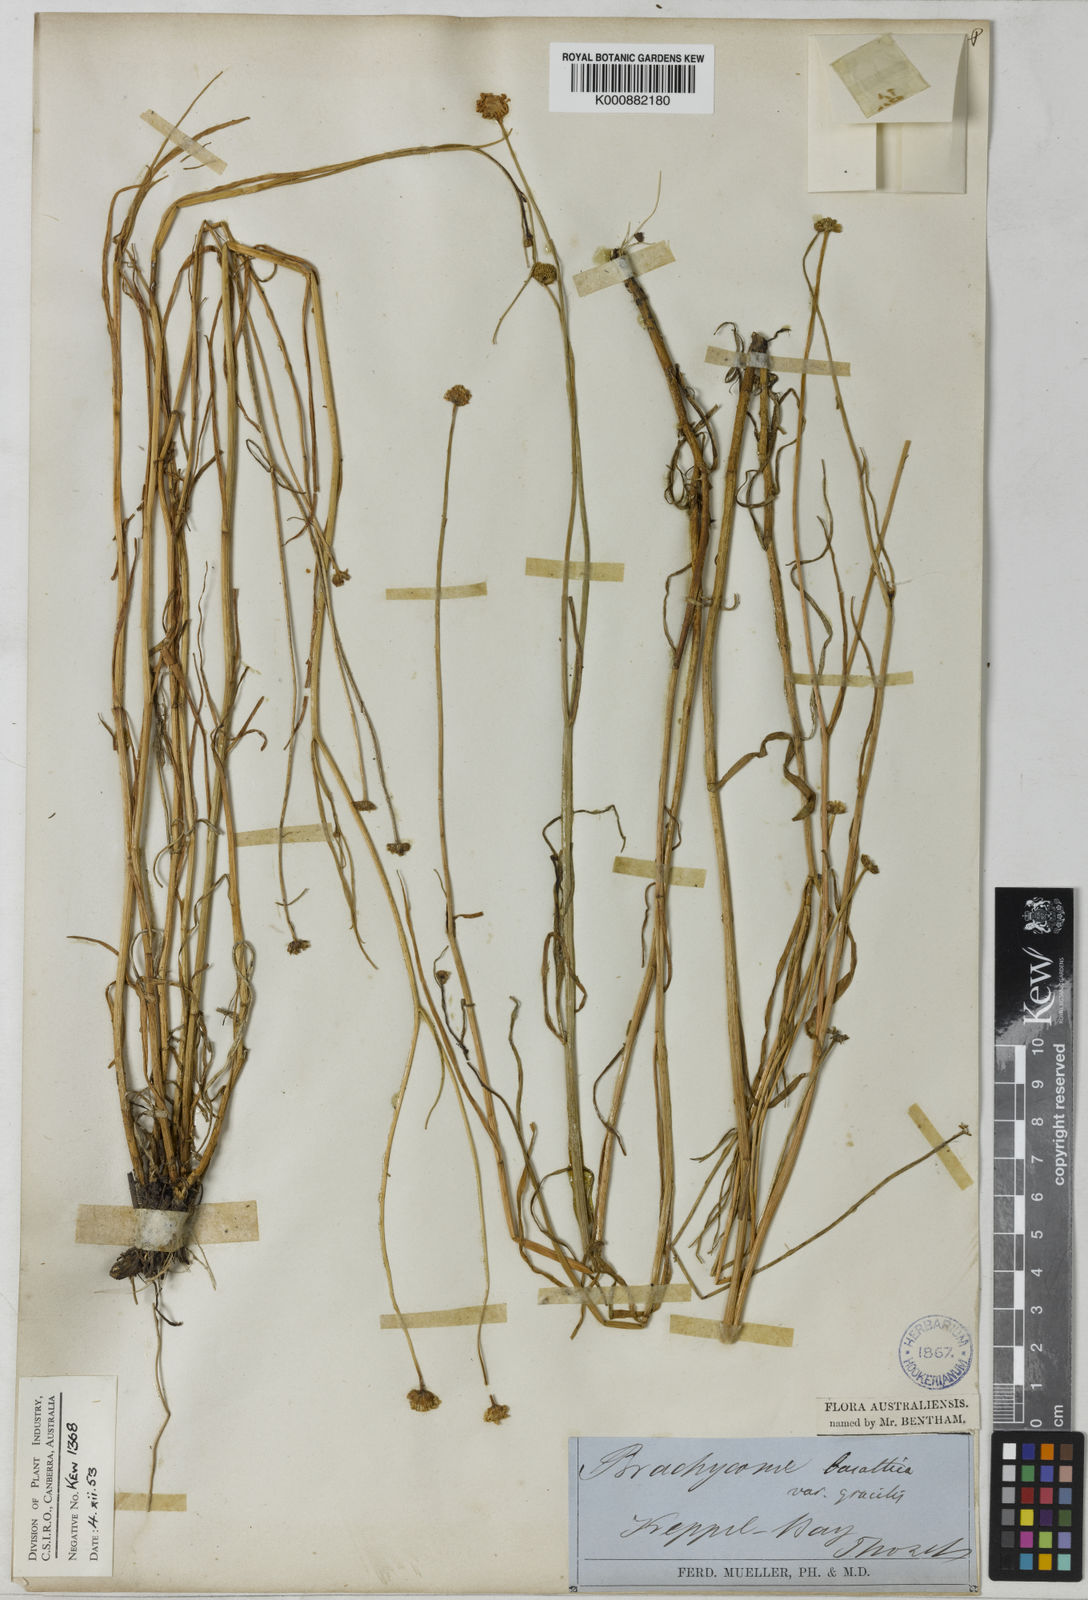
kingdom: Plantae
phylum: Tracheophyta
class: Magnoliopsida
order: Asterales
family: Asteraceae
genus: Brachyscome
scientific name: Brachyscome basaltica
